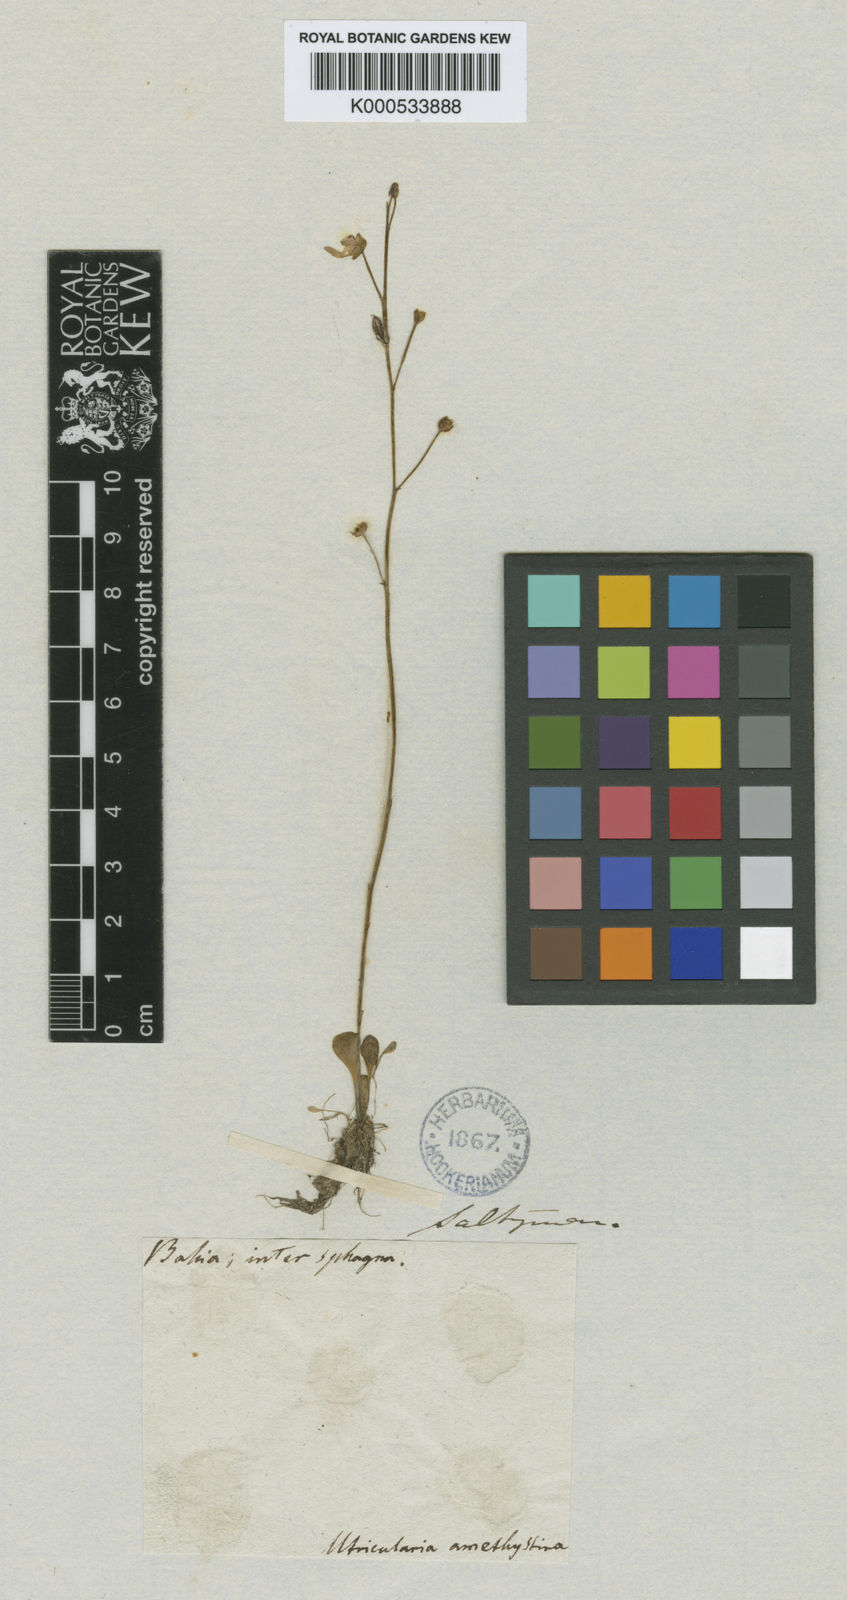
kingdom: Plantae
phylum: Tracheophyta
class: Magnoliopsida
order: Lamiales
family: Lentibulariaceae
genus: Utricularia
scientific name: Utricularia amethystina
